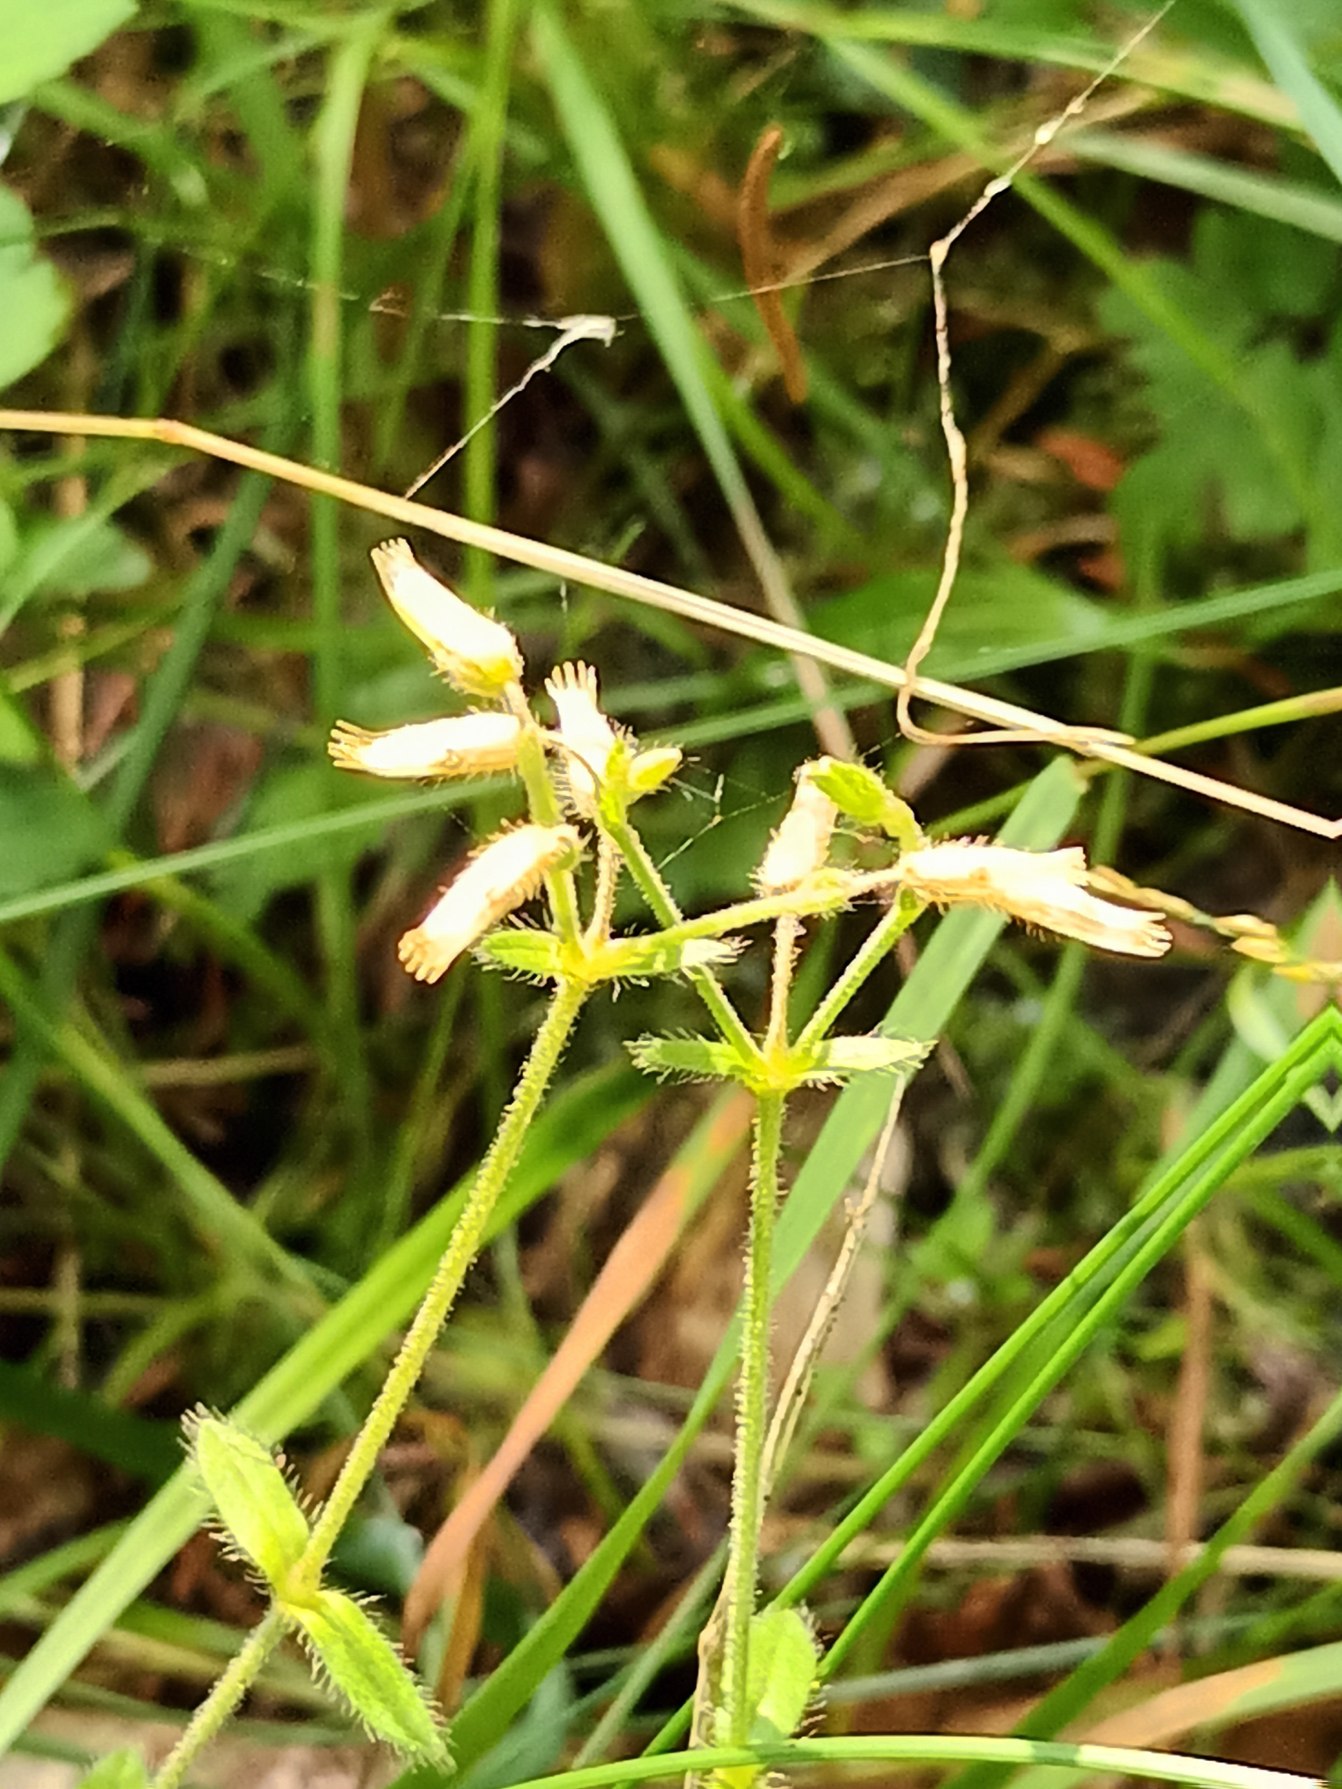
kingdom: Plantae
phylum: Tracheophyta
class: Magnoliopsida
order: Caryophyllales
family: Caryophyllaceae
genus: Cerastium
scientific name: Cerastium fontanum
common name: Almindelig hønsetarm
